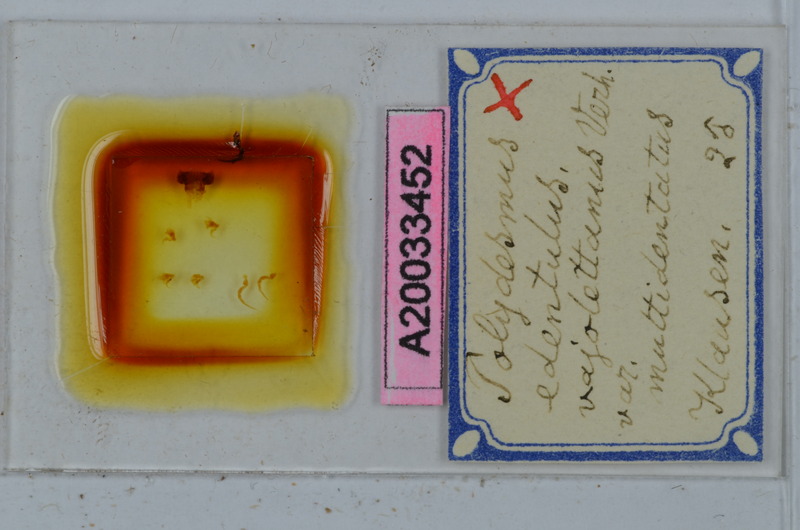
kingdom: Animalia
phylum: Arthropoda
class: Diplopoda
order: Polydesmida
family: Polydesmidae
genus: Polydesmus
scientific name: Polydesmus edentulus
